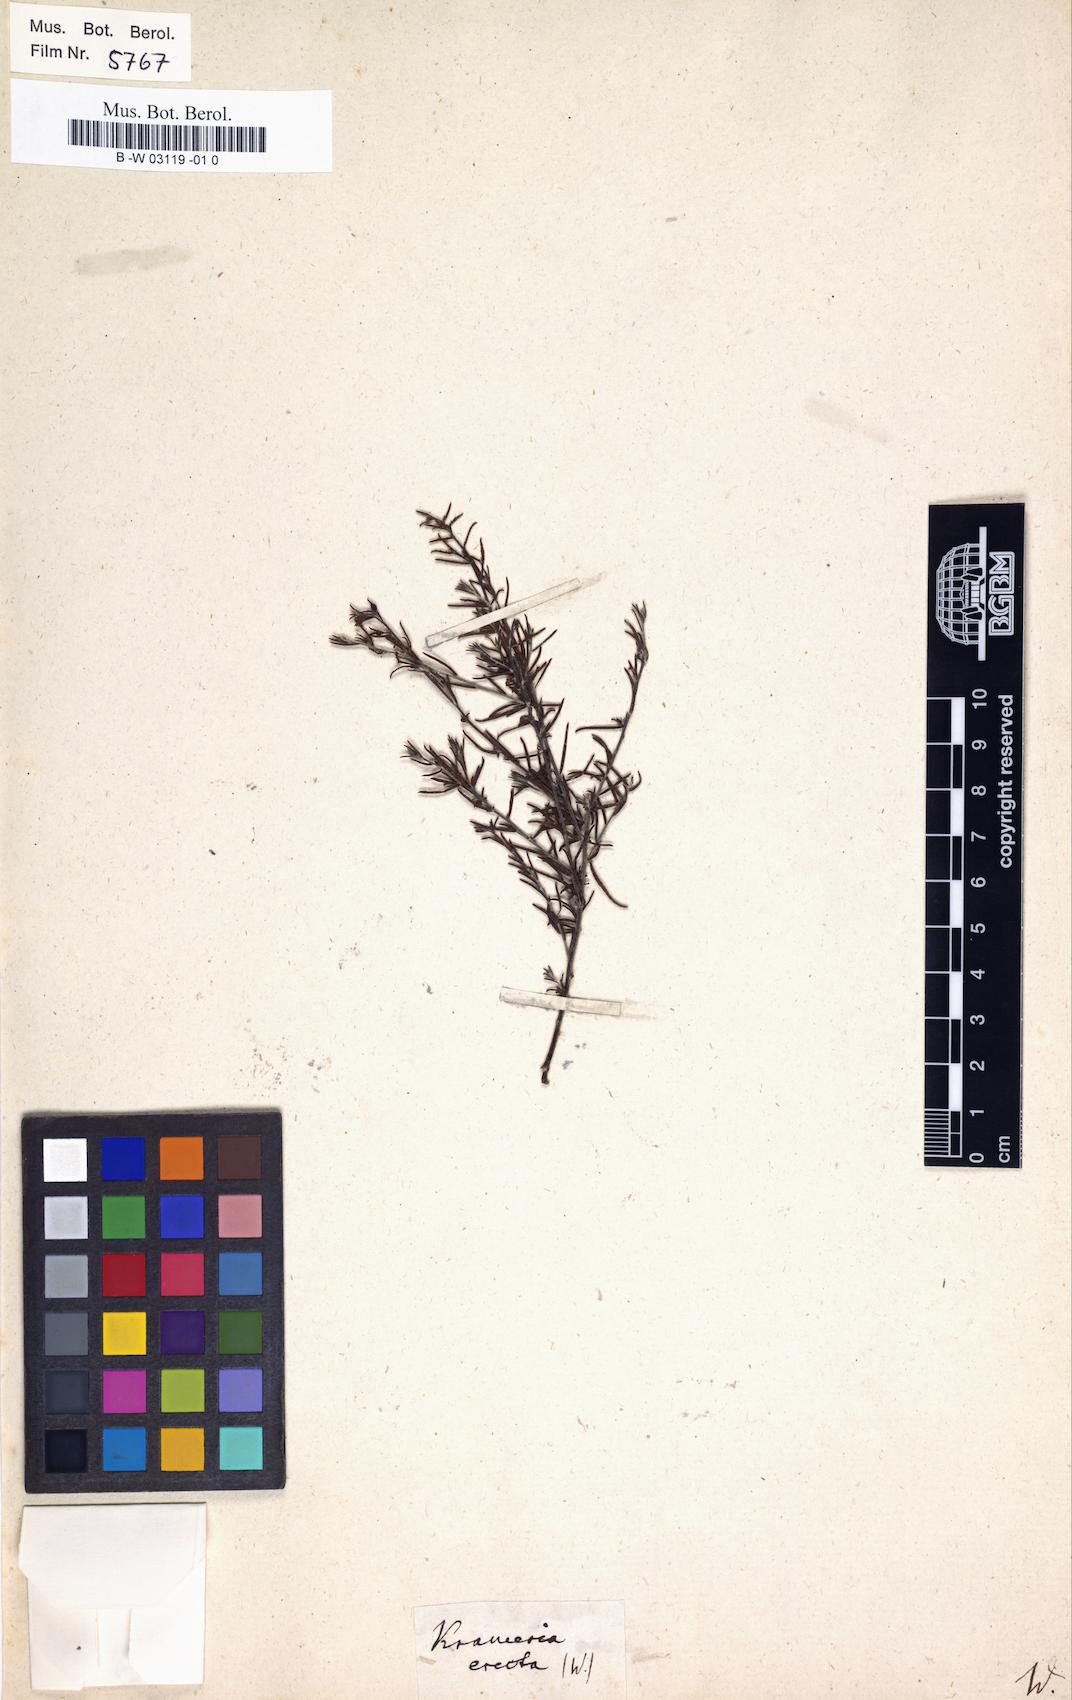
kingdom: Plantae
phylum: Tracheophyta
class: Magnoliopsida
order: Zygophyllales
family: Krameriaceae
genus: Krameria
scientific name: Krameria erecta
